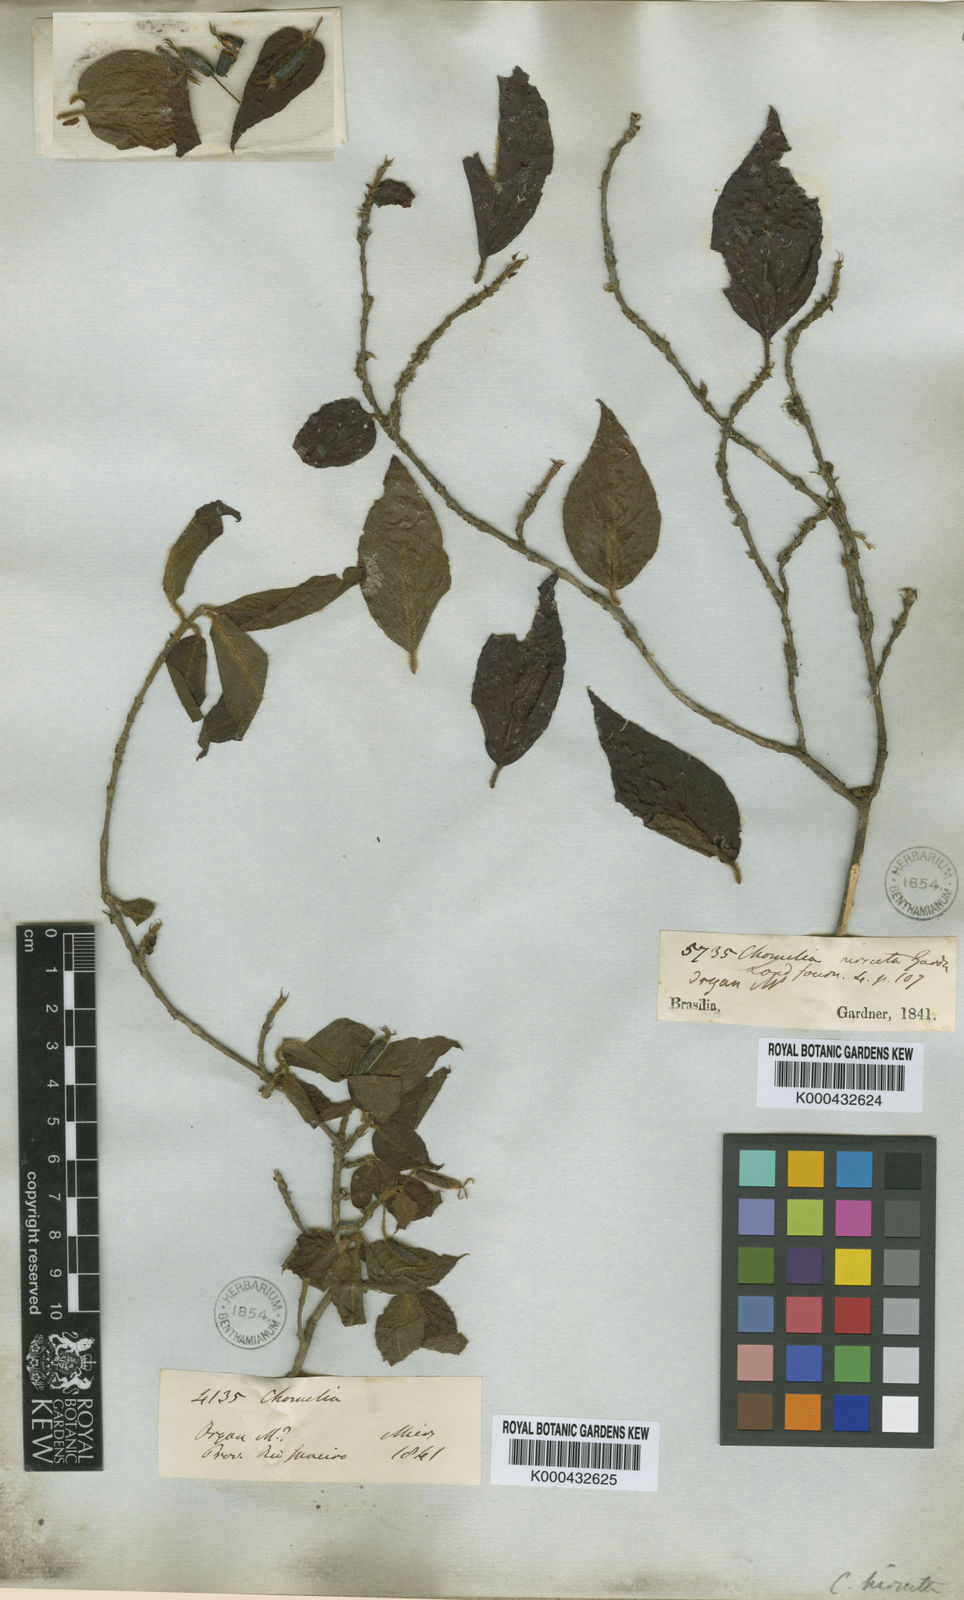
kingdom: Plantae
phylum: Tracheophyta
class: Magnoliopsida
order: Gentianales
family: Rubiaceae
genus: Chomelia
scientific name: Chomelia hirsuta
